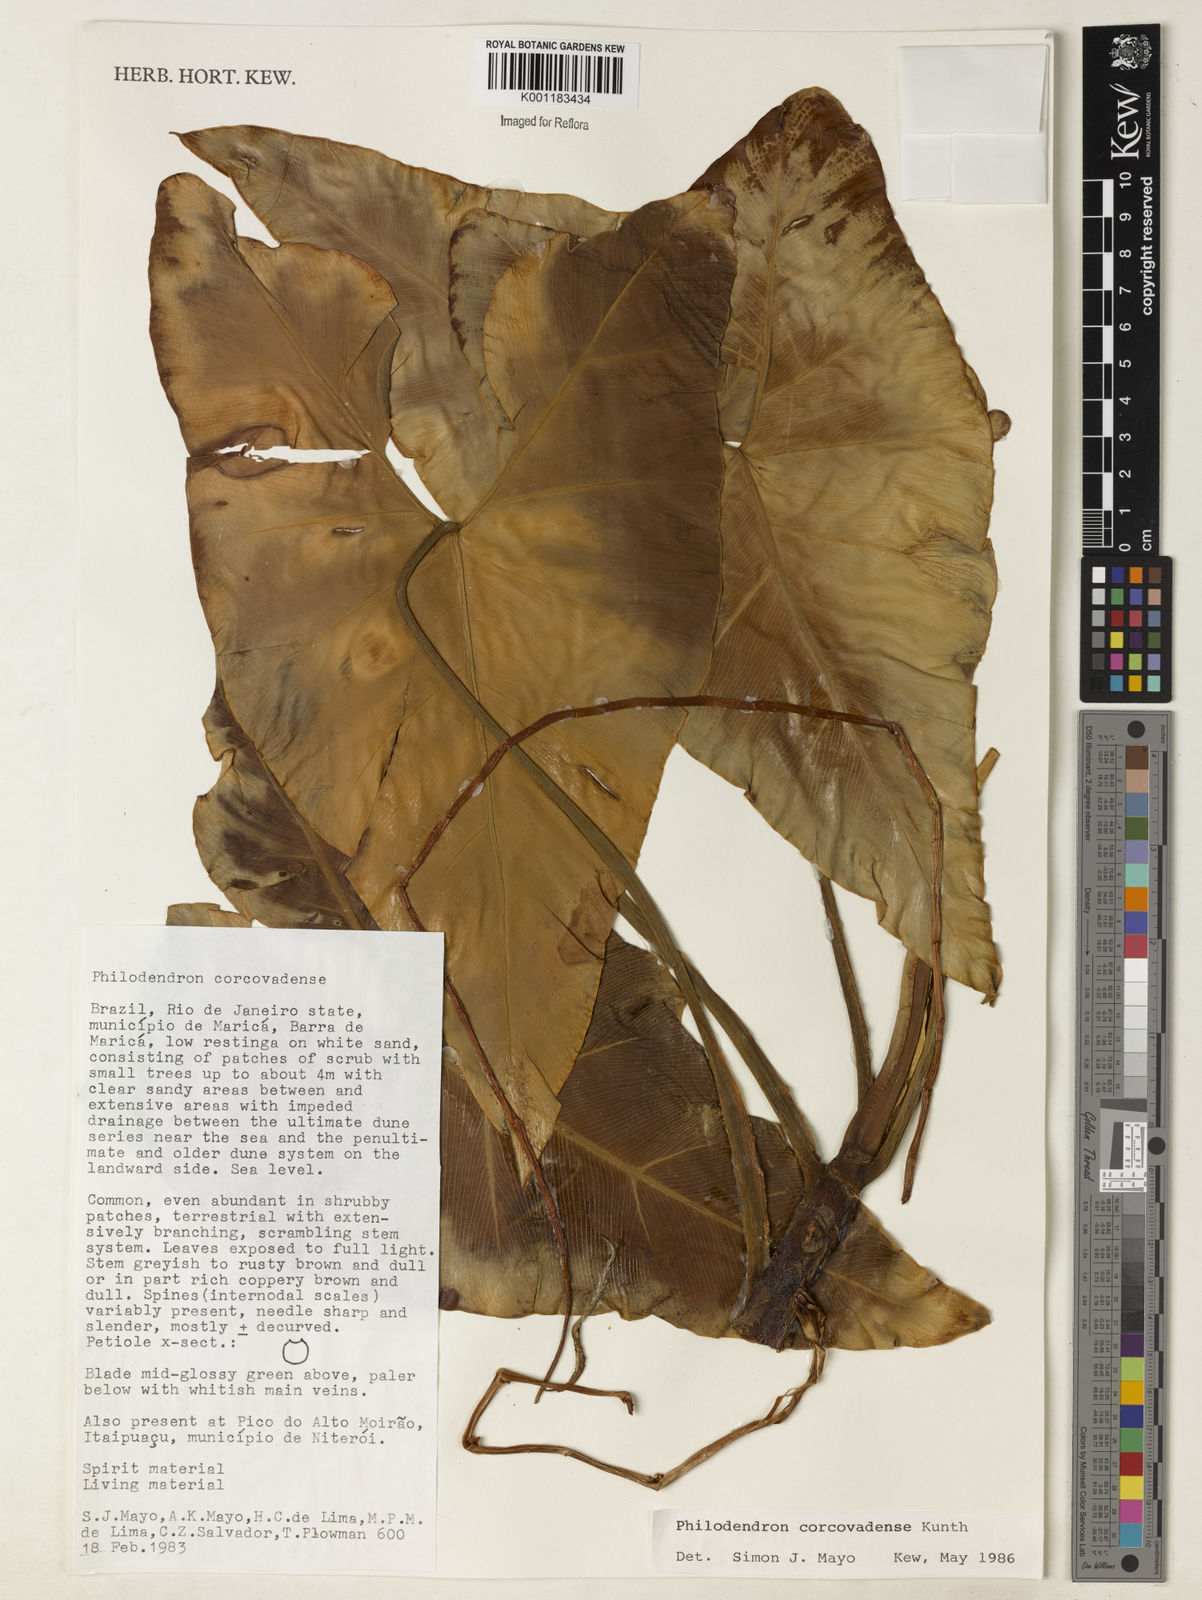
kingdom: Plantae
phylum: Tracheophyta
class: Liliopsida
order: Alismatales
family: Araceae
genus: Thaumatophyllum
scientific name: Thaumatophyllum corcovadense
